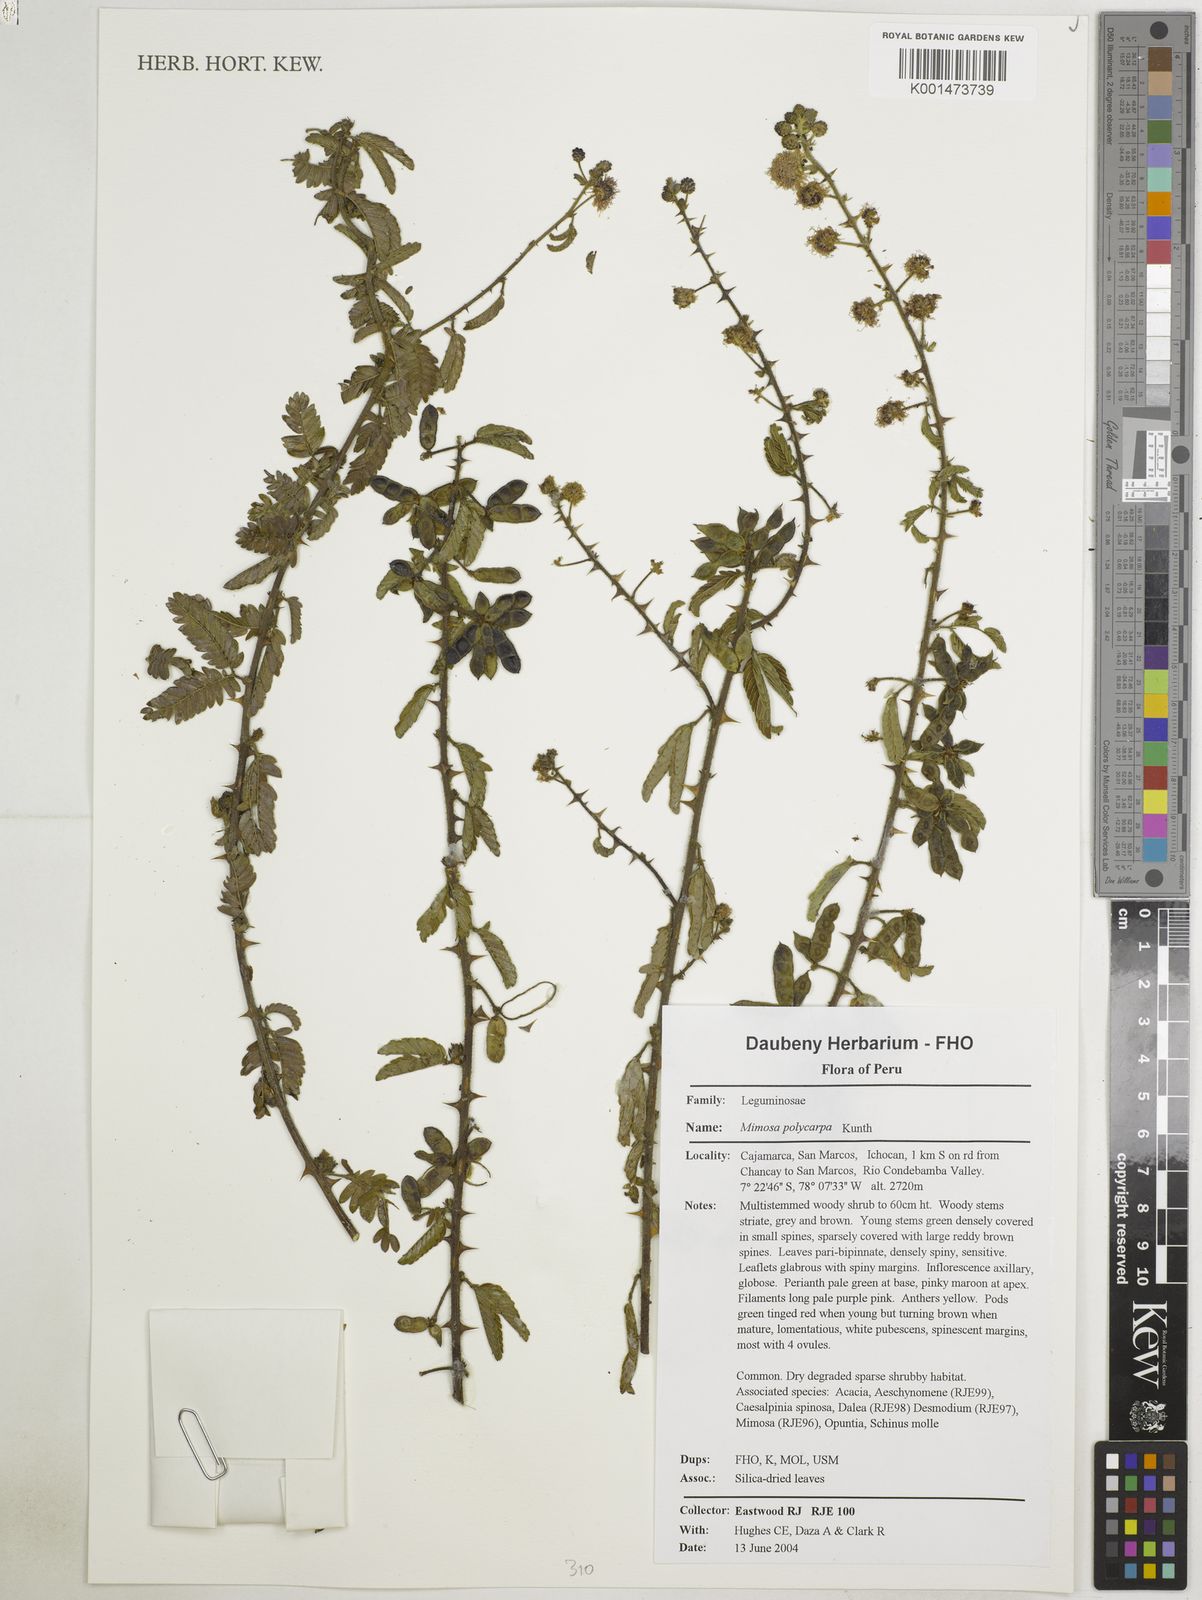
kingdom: Plantae
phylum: Tracheophyta
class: Magnoliopsida
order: Fabales
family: Fabaceae
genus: Mimosa
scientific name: Mimosa polycarpa
